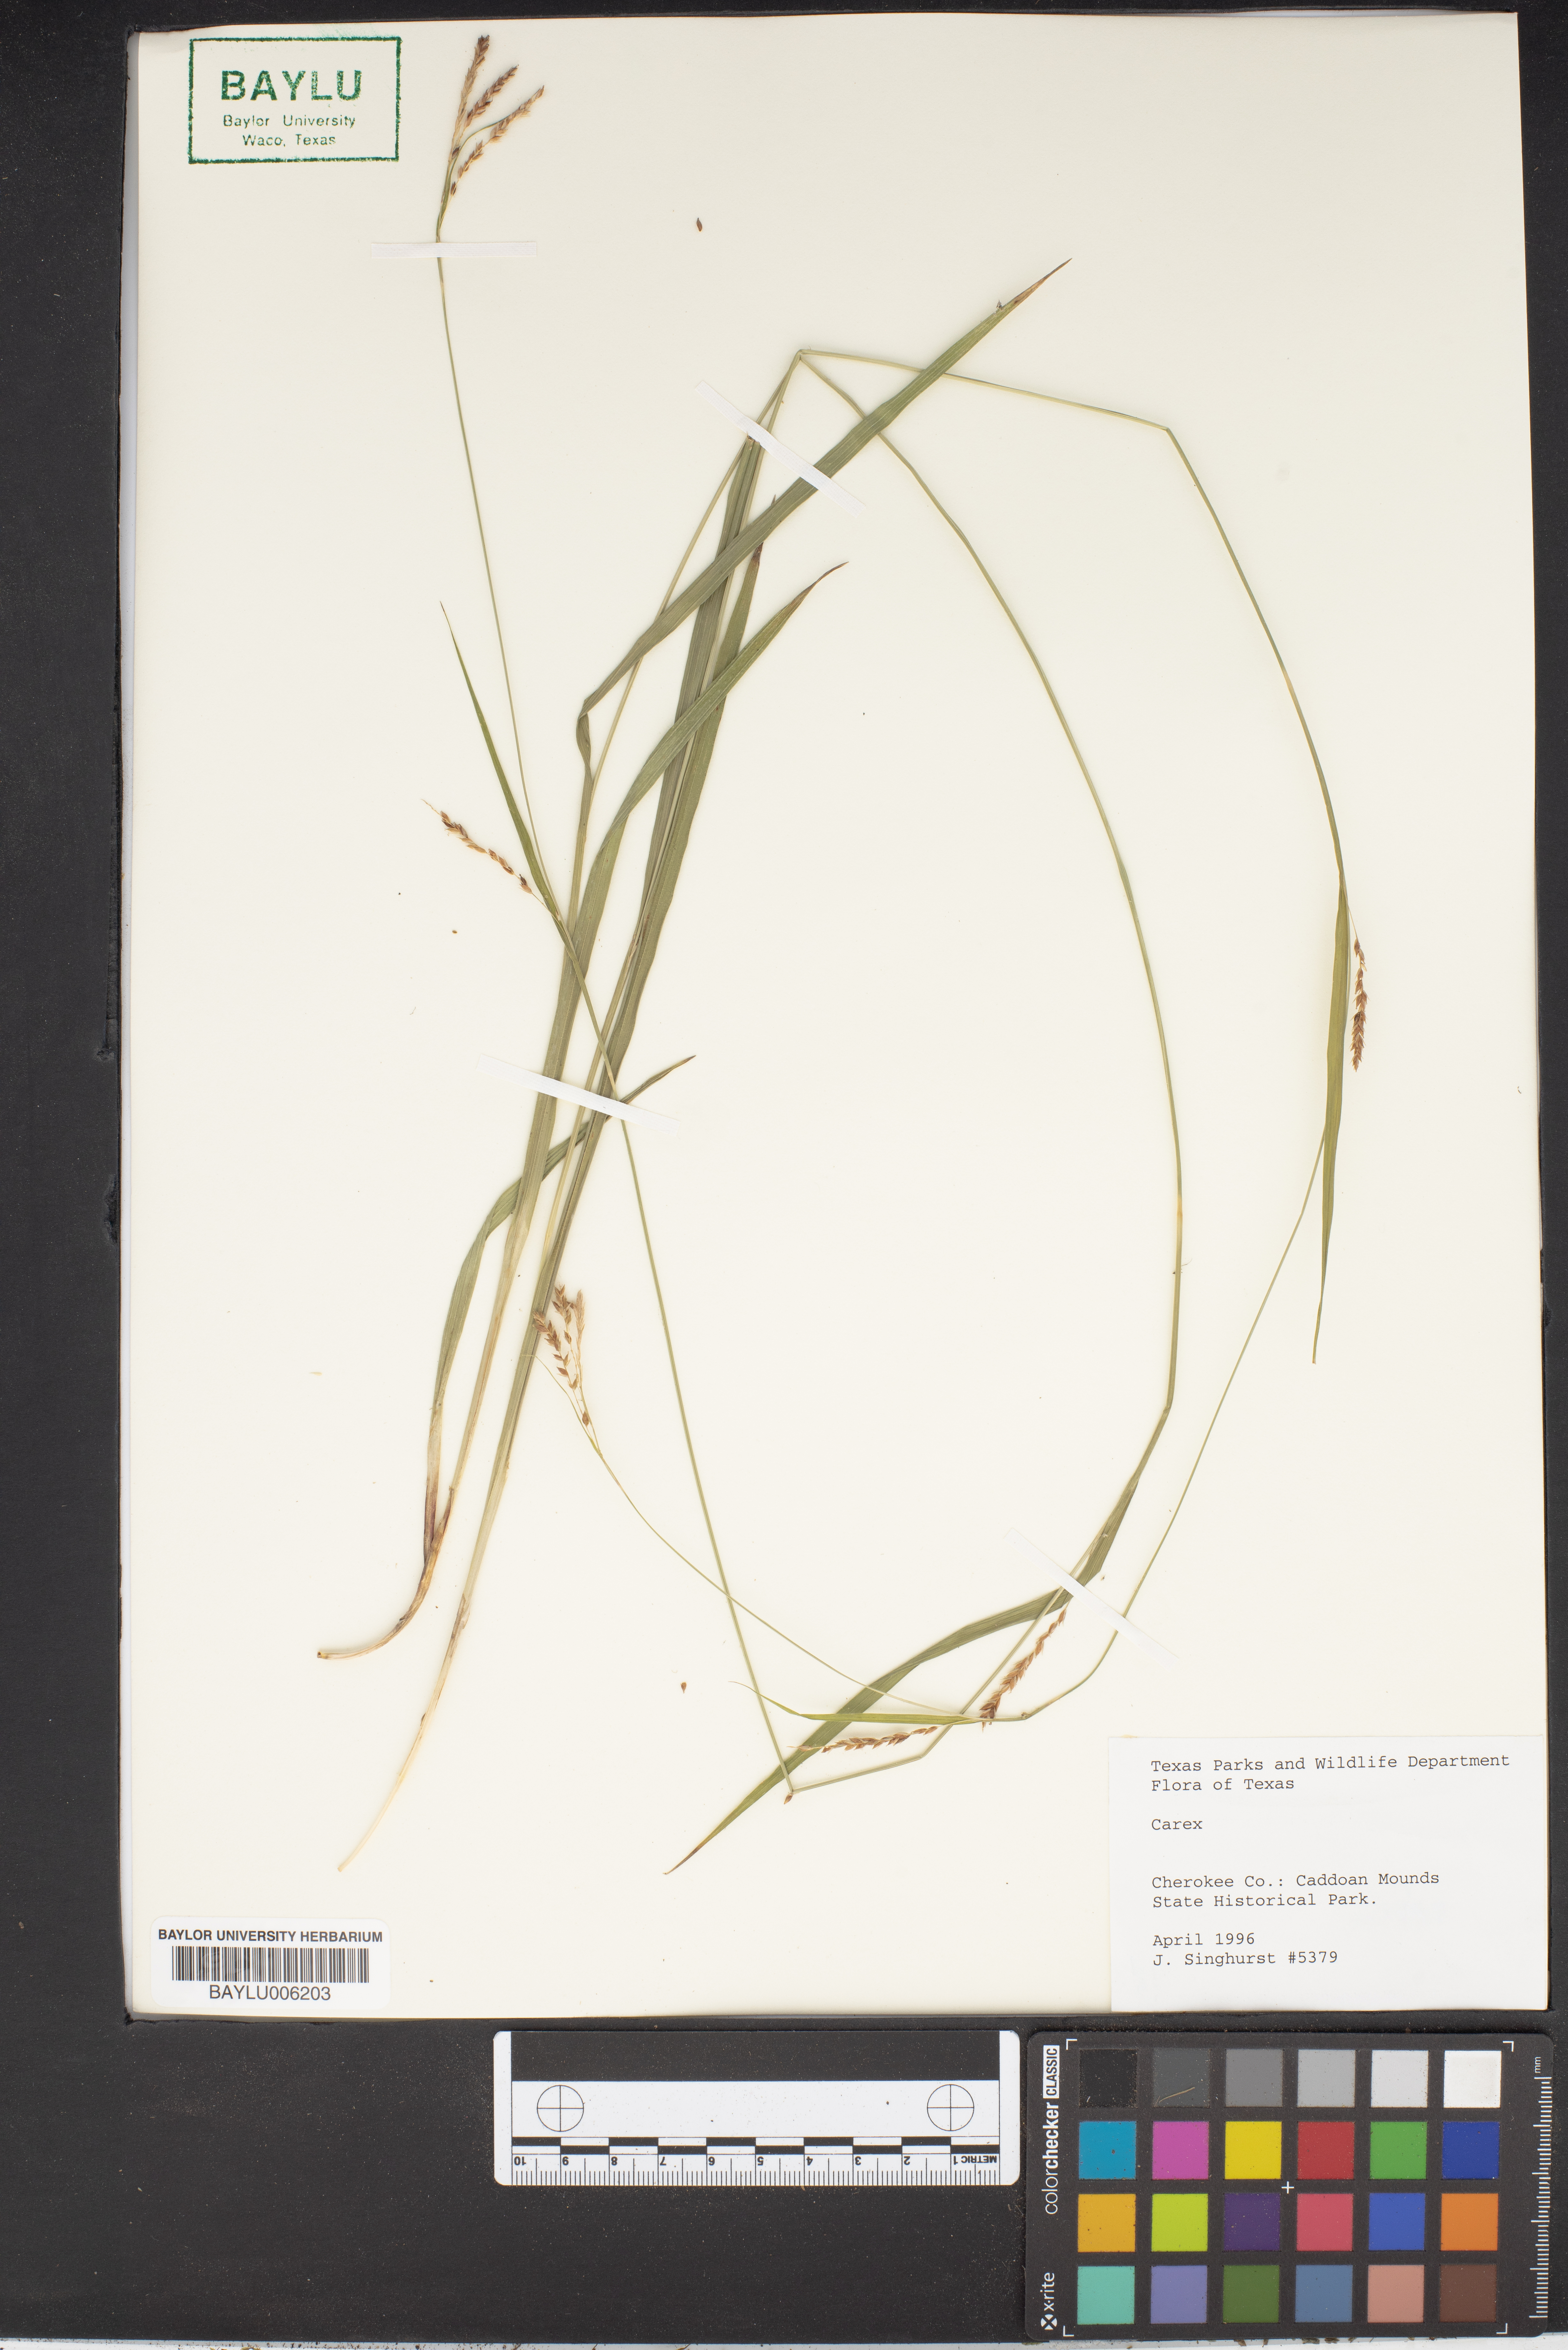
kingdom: Plantae
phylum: Tracheophyta
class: Liliopsida
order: Poales
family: Cyperaceae
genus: Carex
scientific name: Carex
